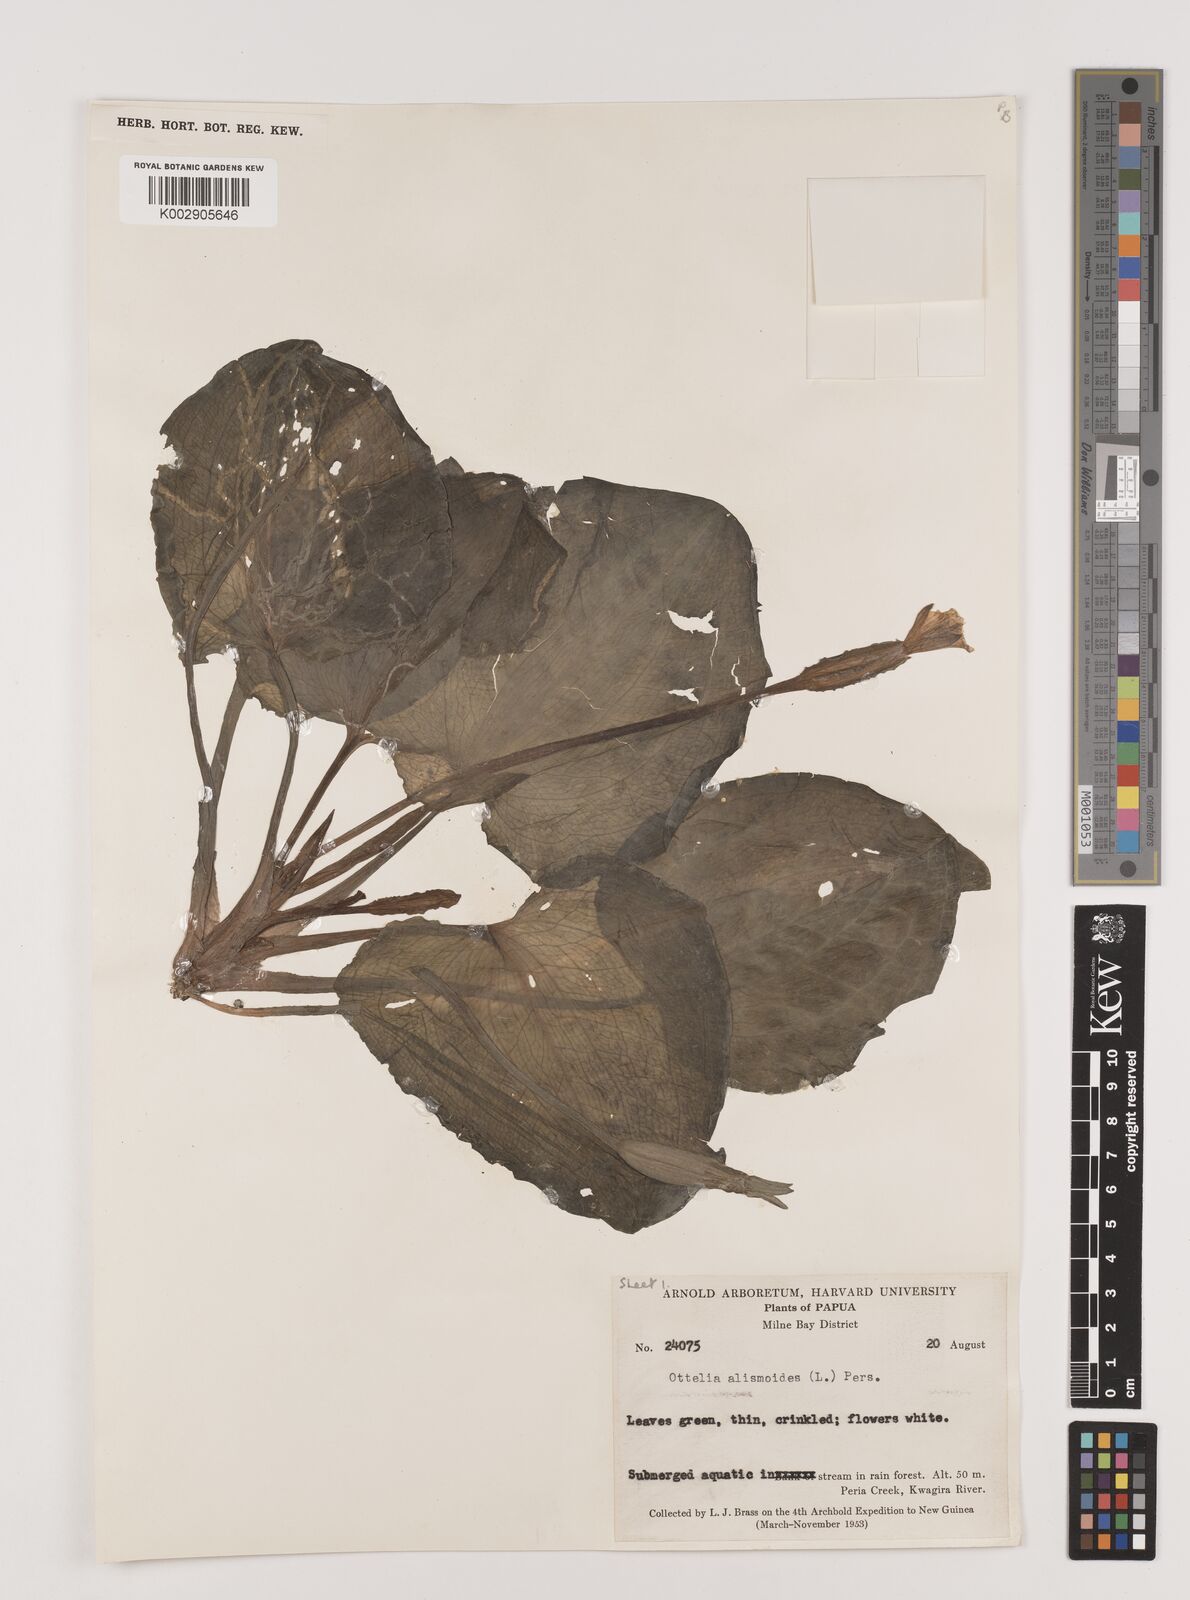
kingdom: Plantae
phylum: Tracheophyta
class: Liliopsida
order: Alismatales
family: Hydrocharitaceae
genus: Ottelia
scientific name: Ottelia alismoides
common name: Duck-lettuce
